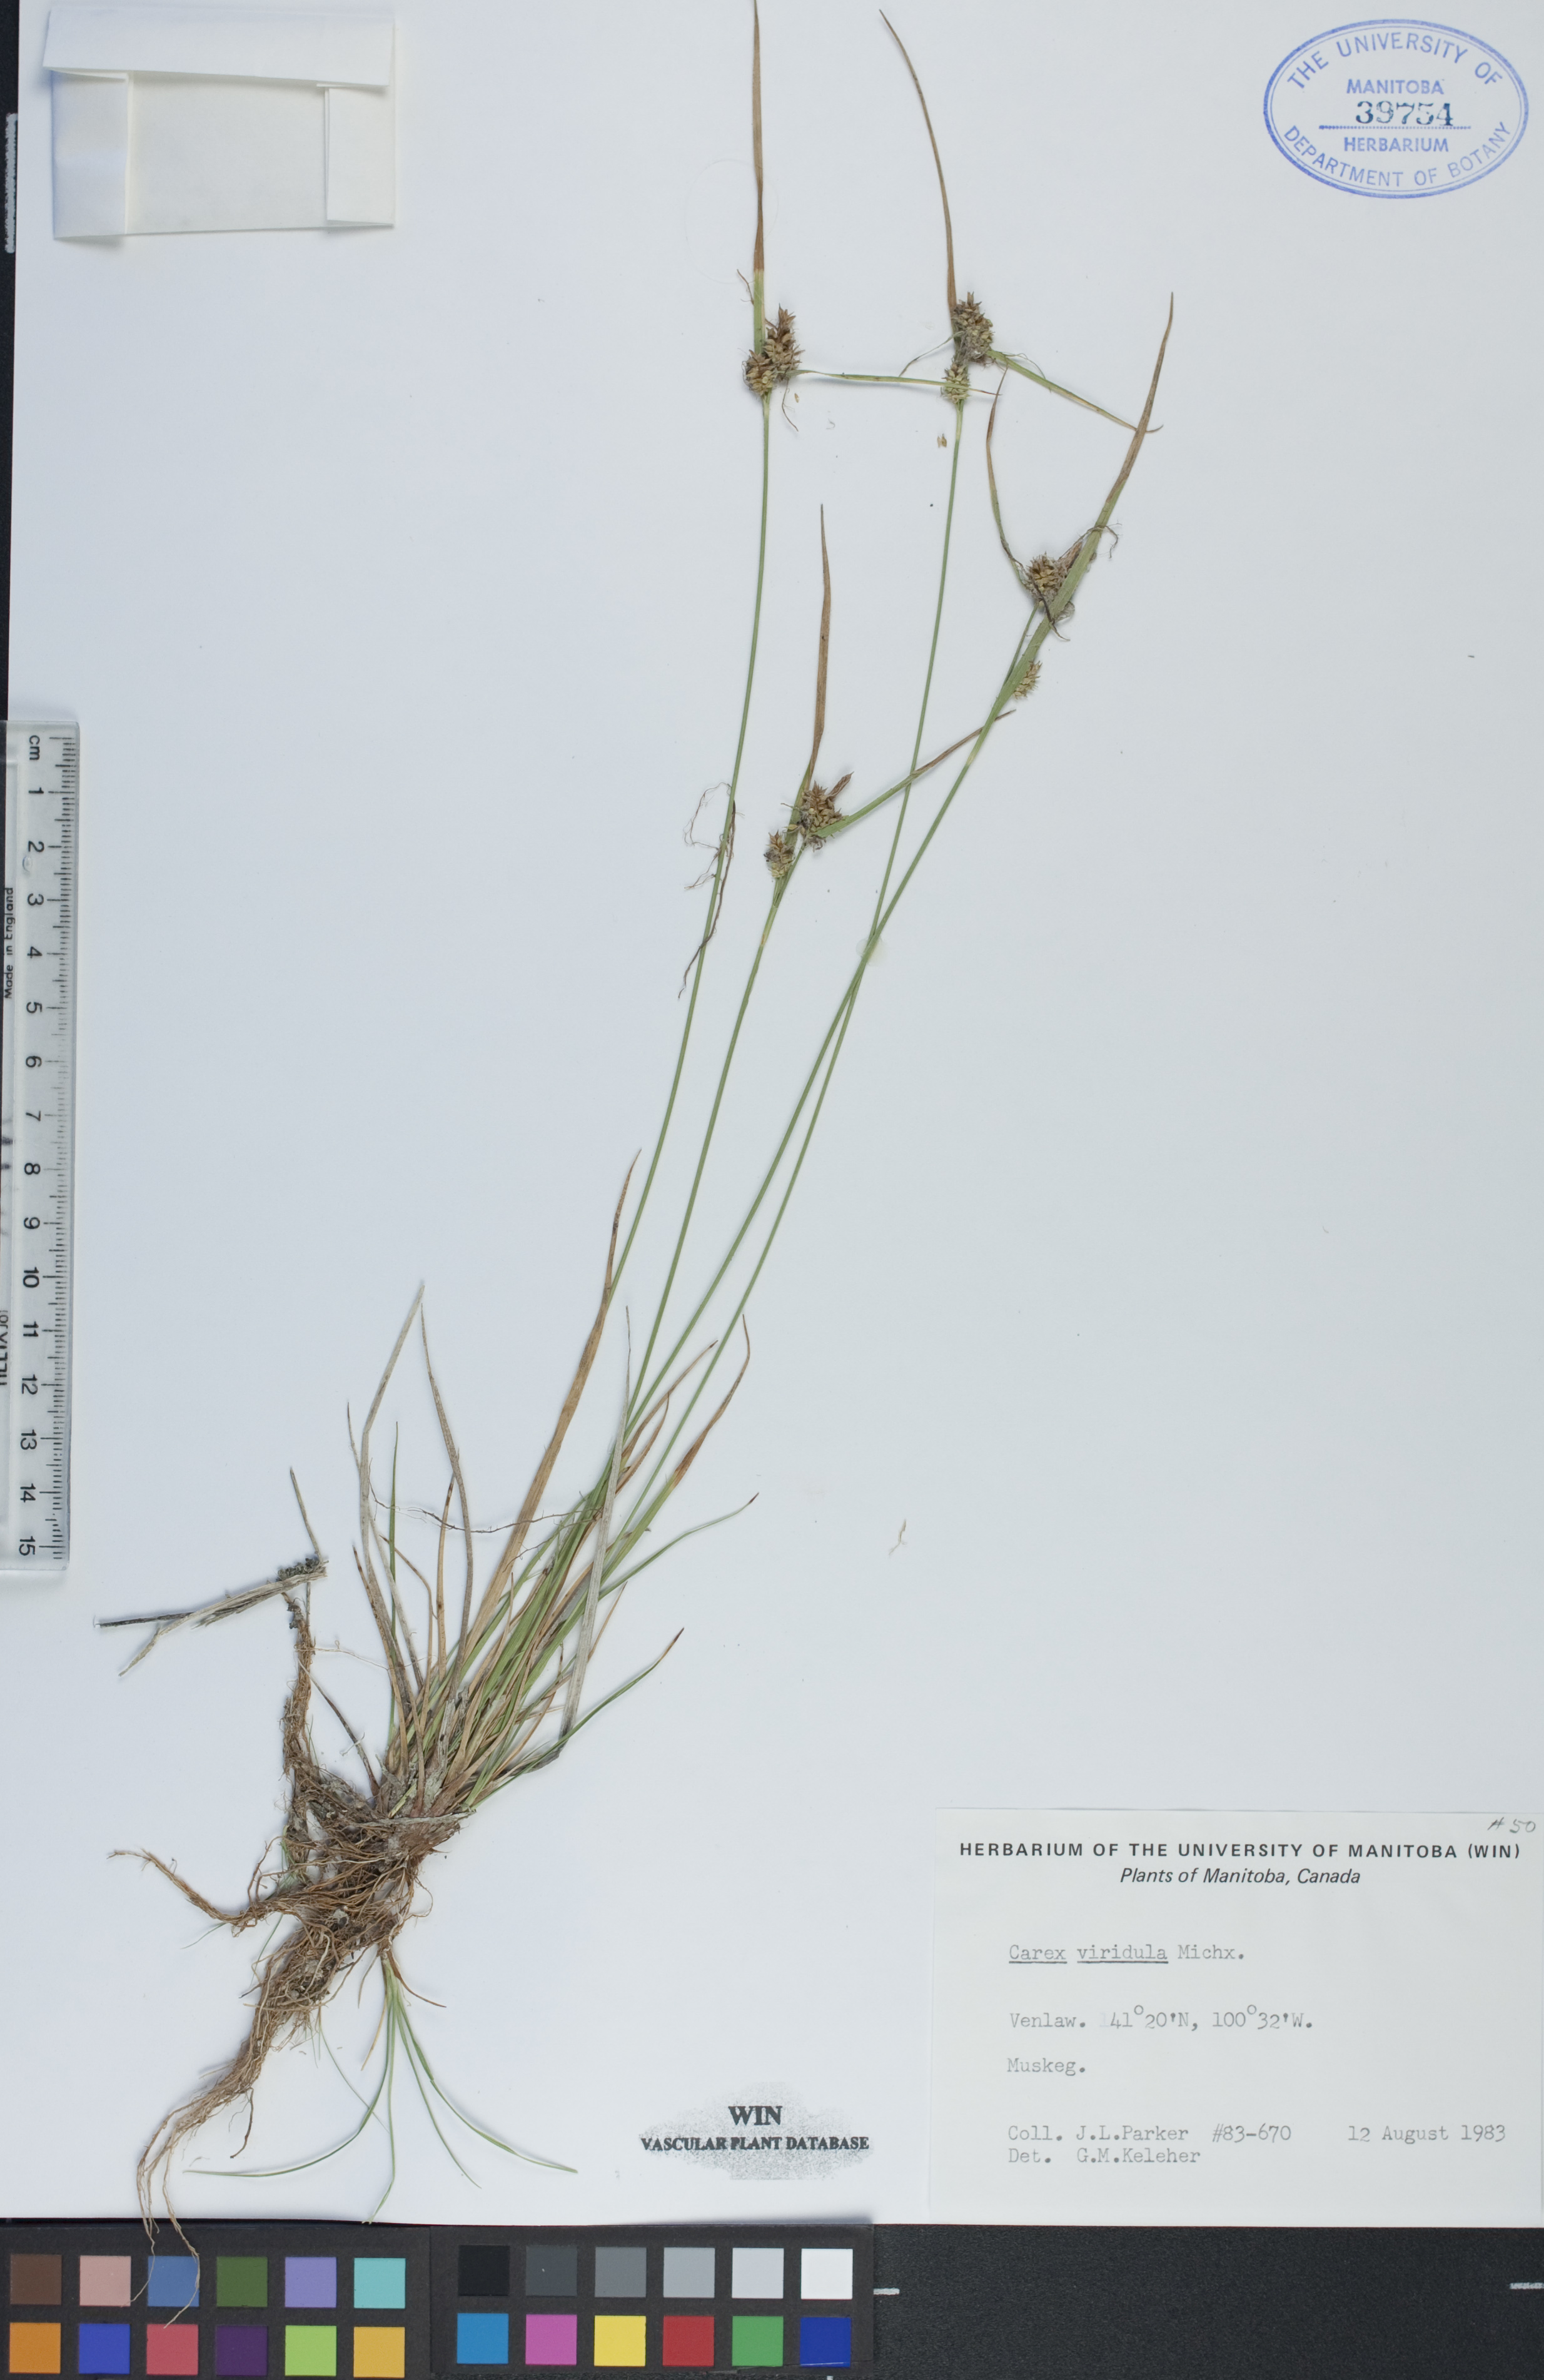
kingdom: Plantae
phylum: Tracheophyta
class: Liliopsida
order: Poales
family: Cyperaceae
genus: Carex
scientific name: Carex oederi
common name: Common & small-fruited yellow-sedge
